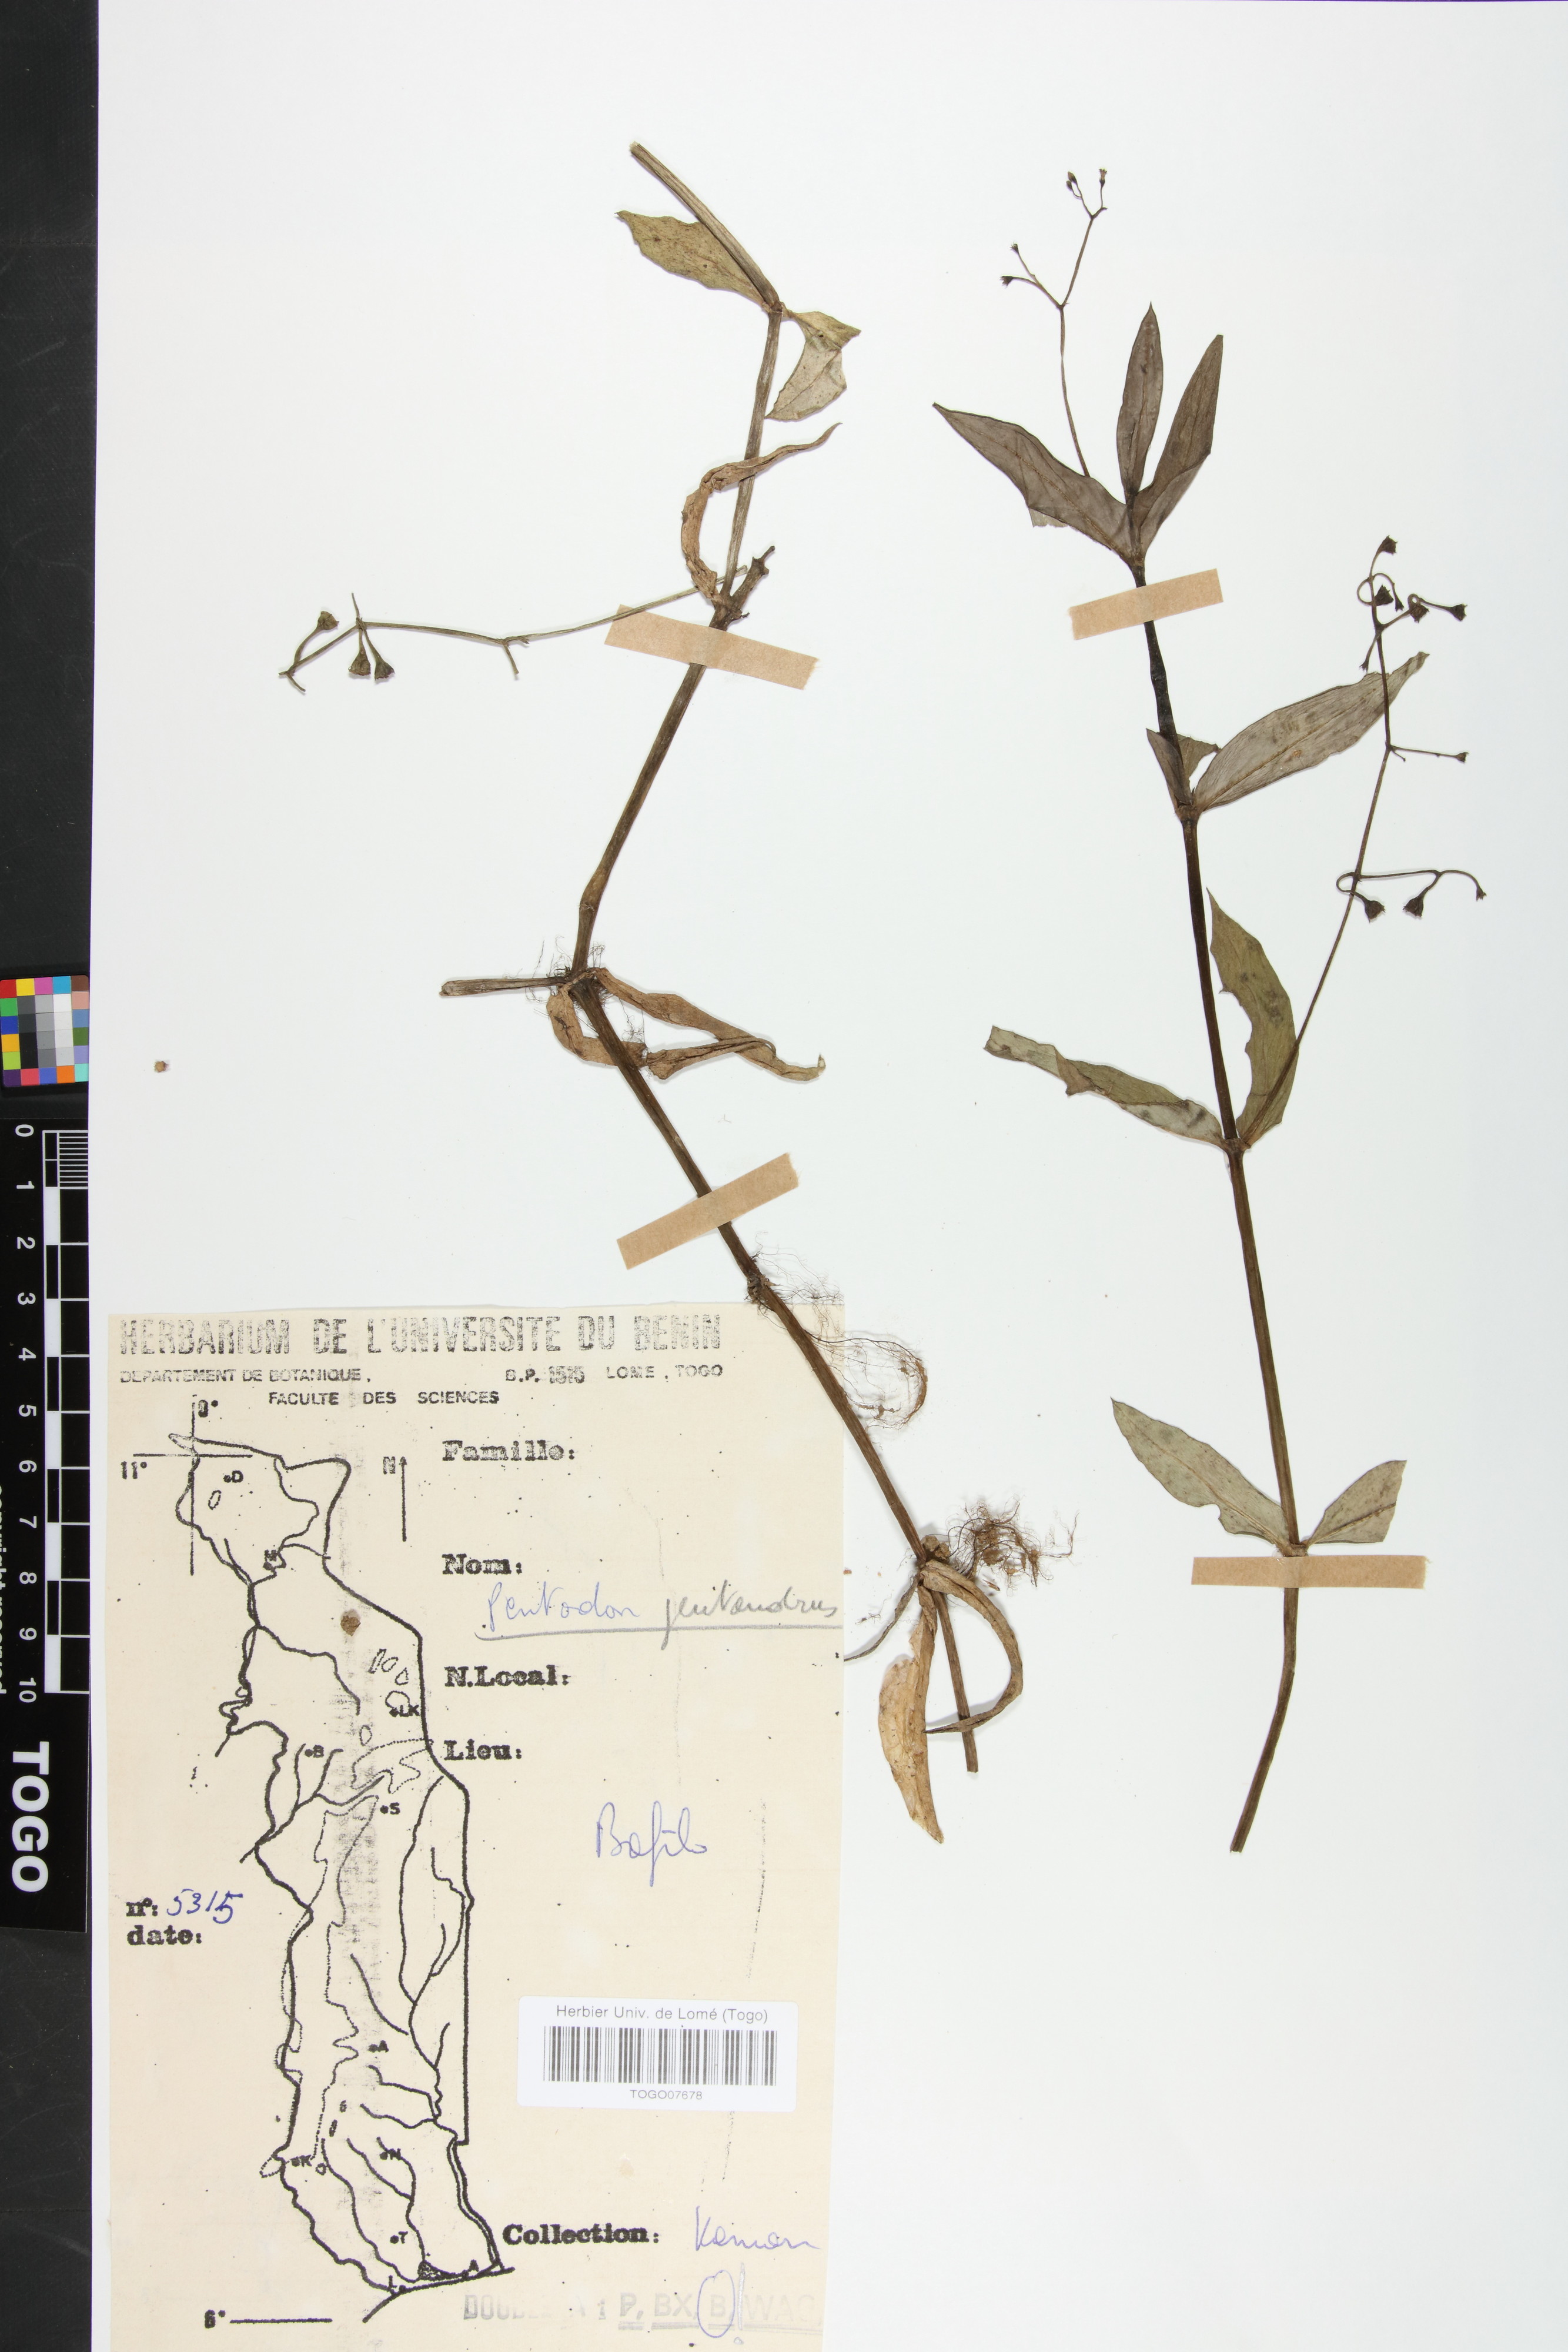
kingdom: Plantae
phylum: Tracheophyta
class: Magnoliopsida
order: Gentianales
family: Rubiaceae
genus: Pentodon
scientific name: Pentodon pentandrus
